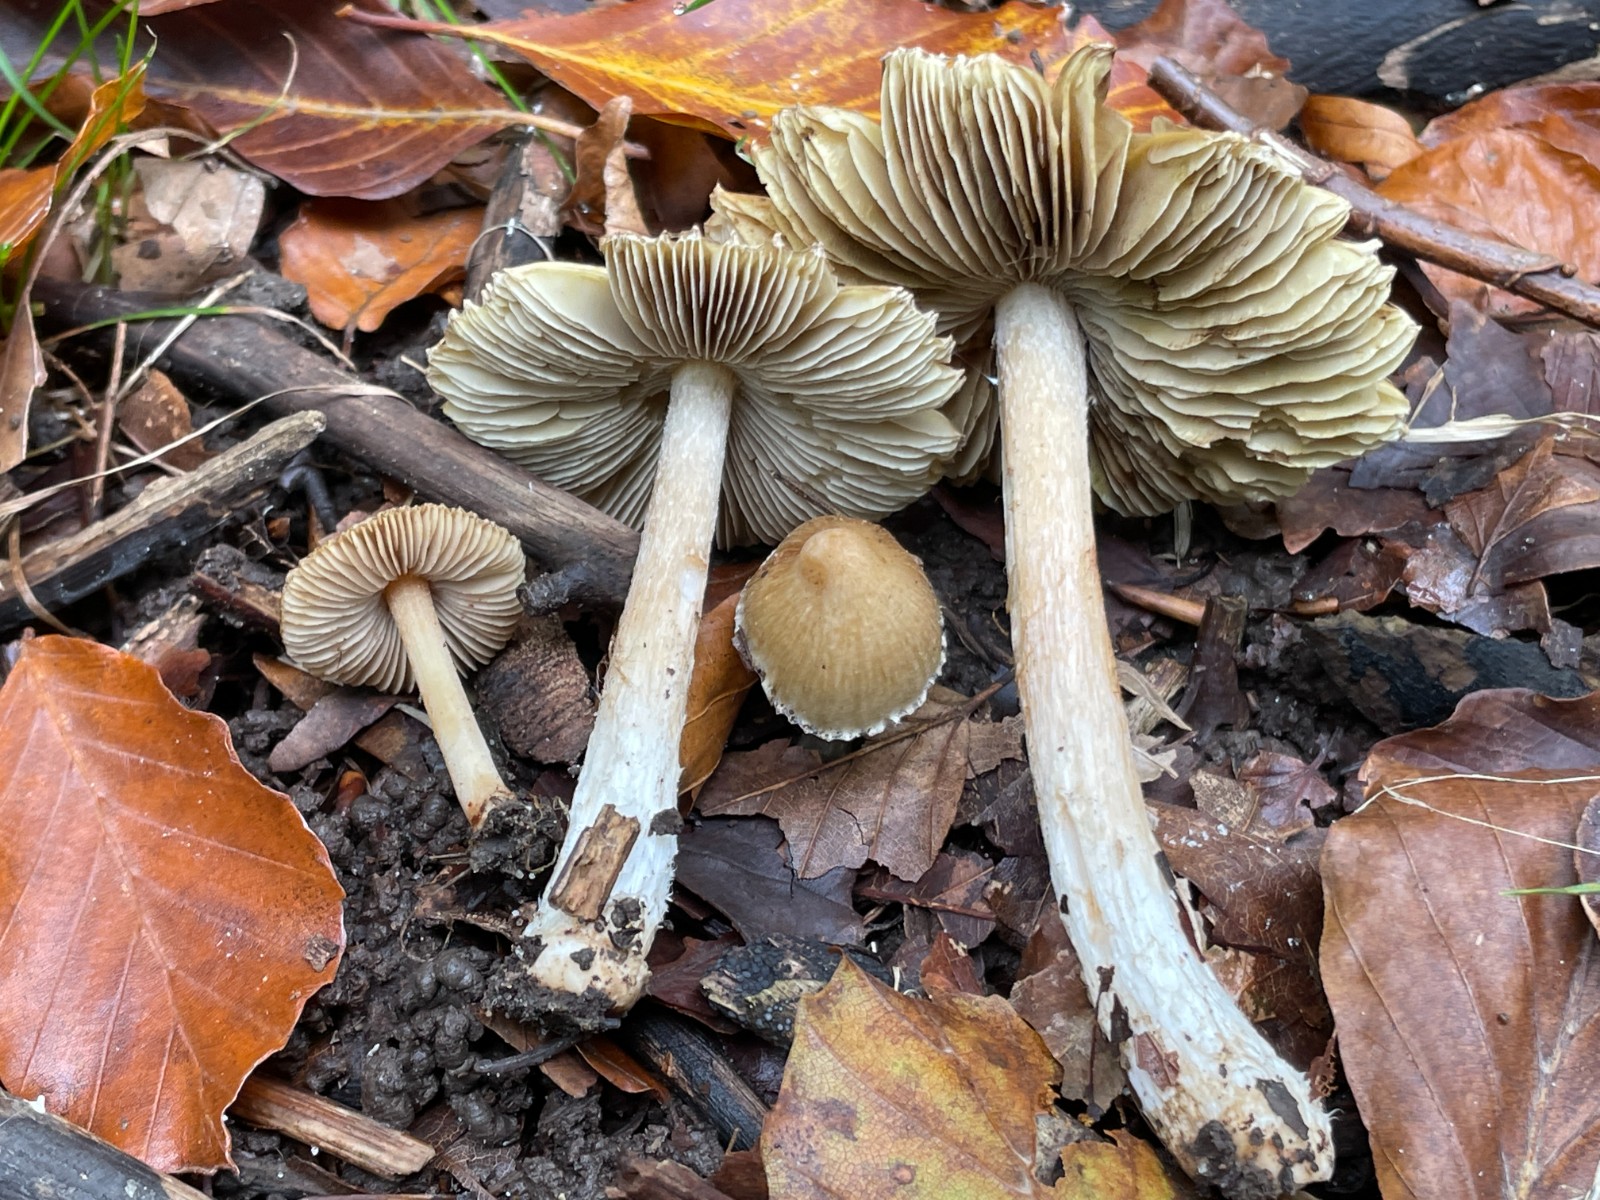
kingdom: Fungi
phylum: Basidiomycota
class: Agaricomycetes
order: Agaricales
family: Inocybaceae
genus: Pseudosperma
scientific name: Pseudosperma
